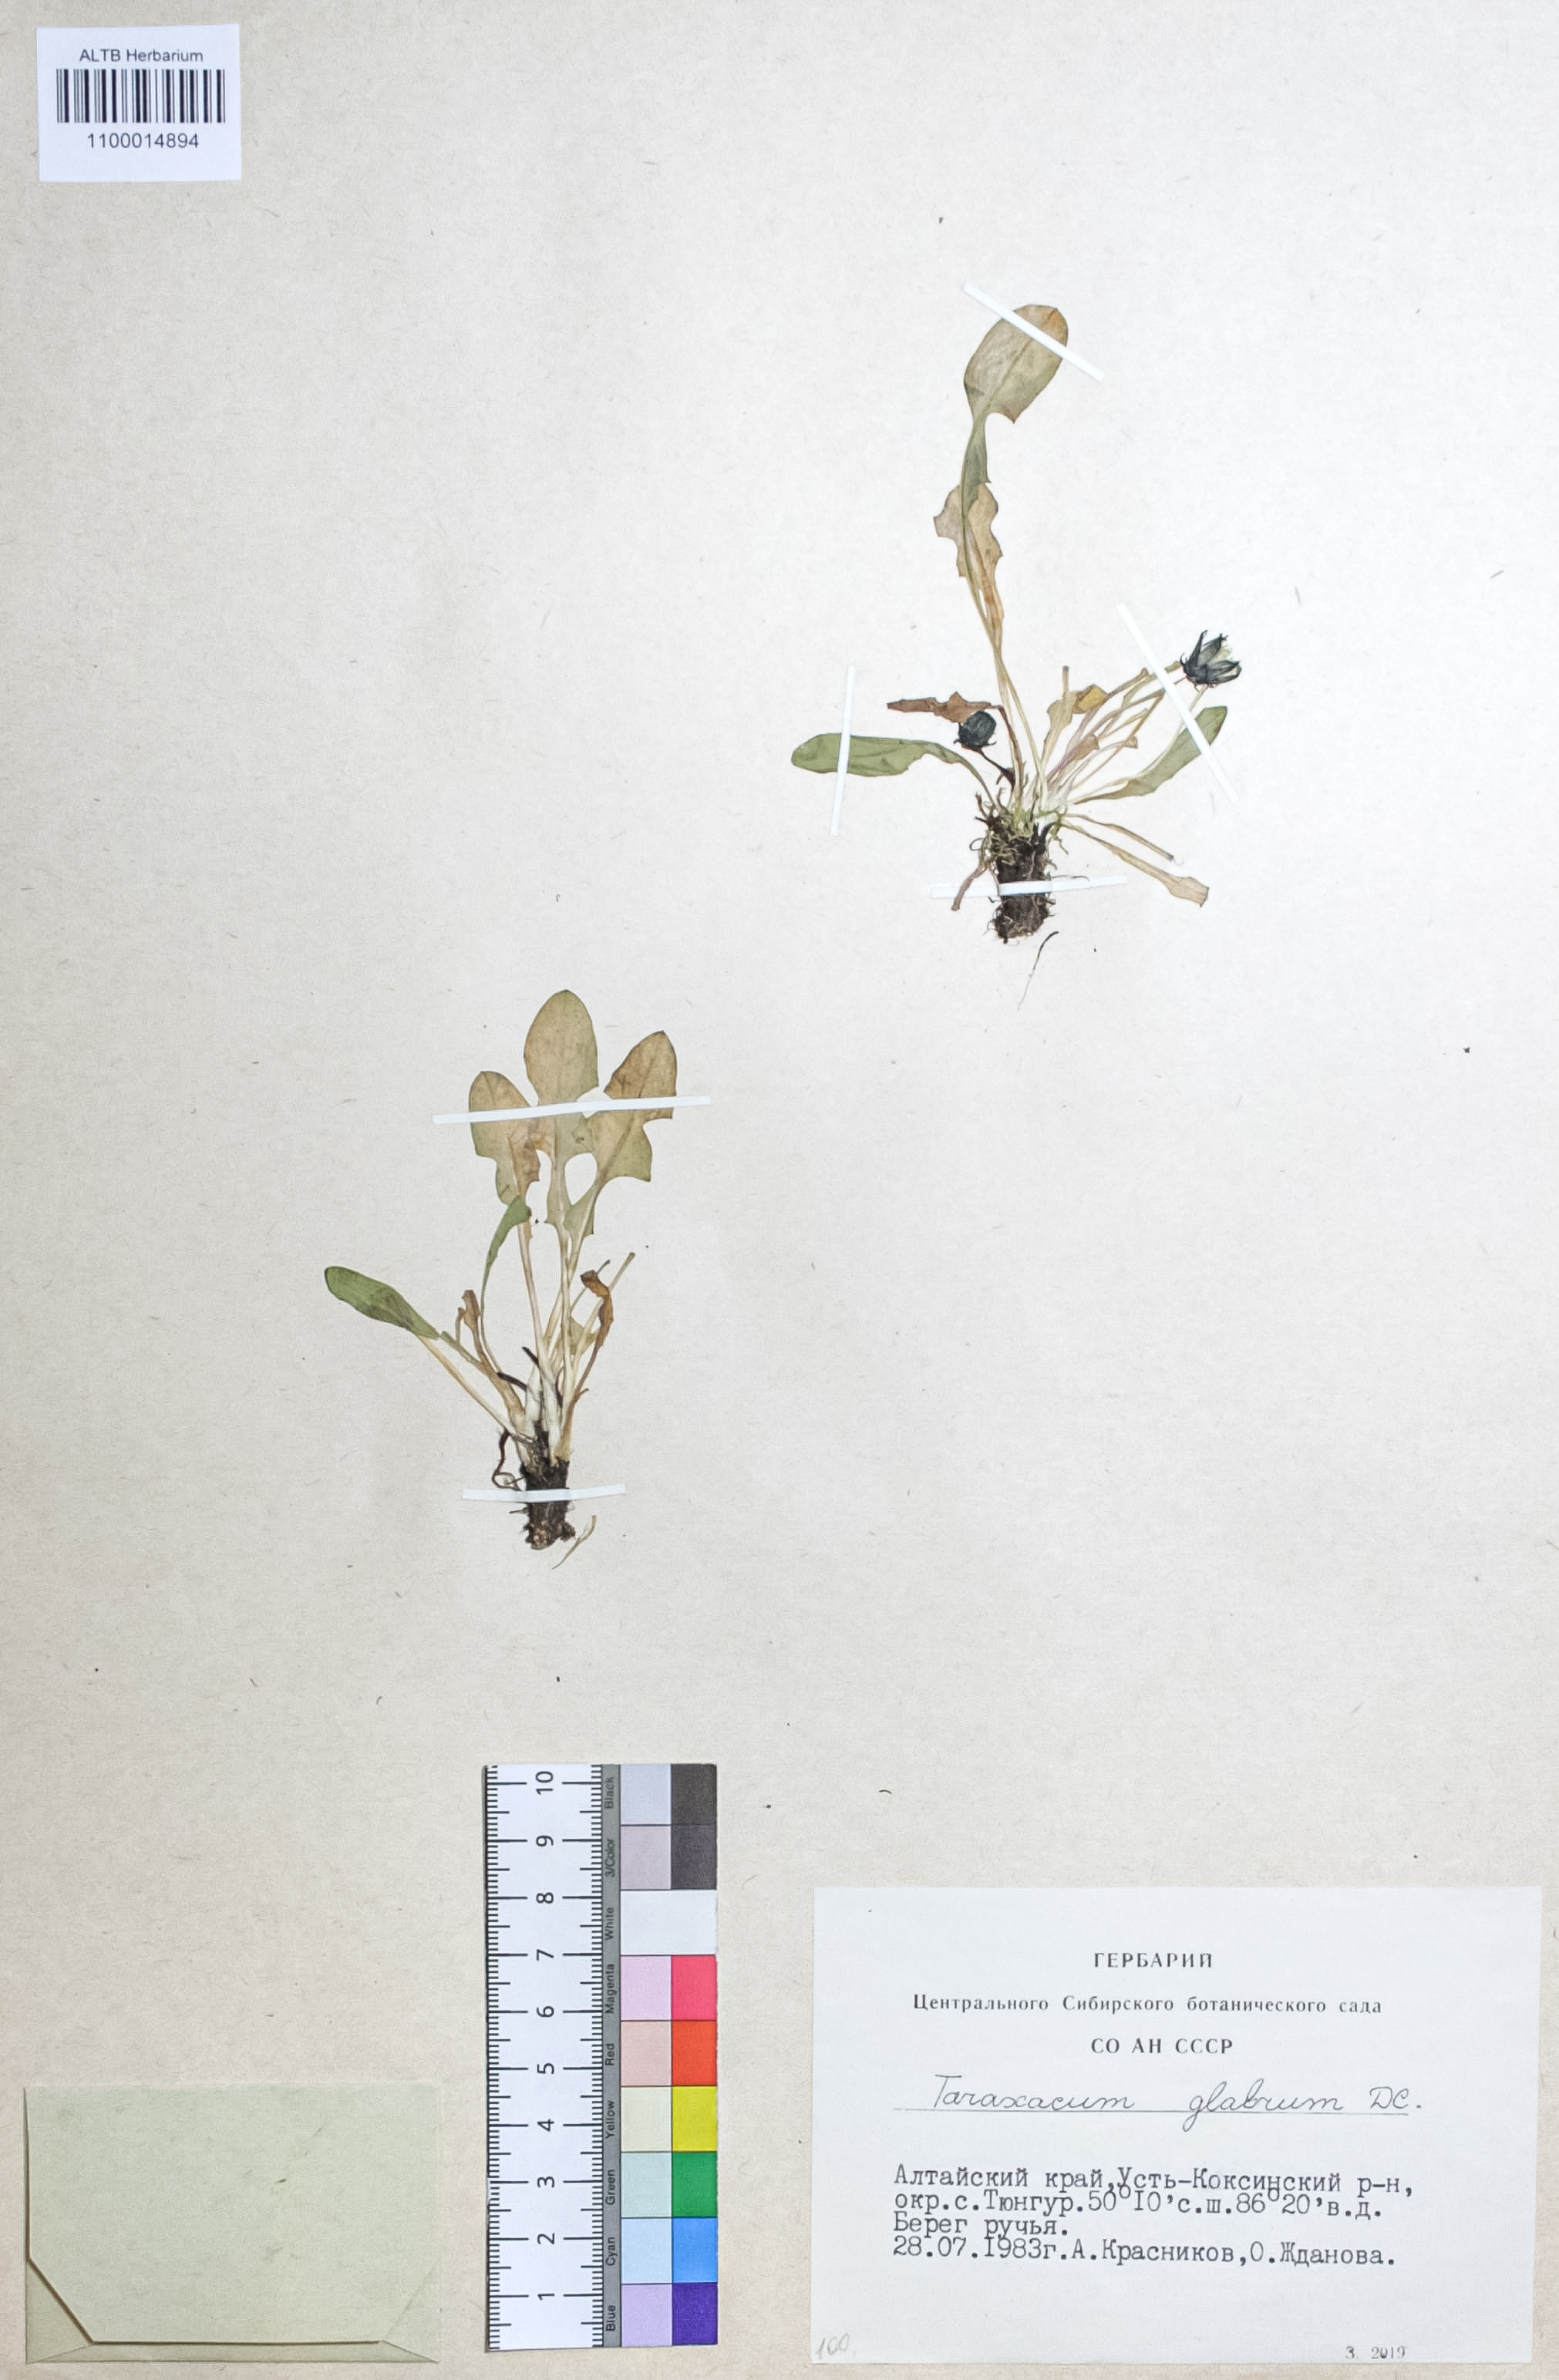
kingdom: Plantae
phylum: Tracheophyta
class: Magnoliopsida
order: Asterales
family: Asteraceae
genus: Taraxacum
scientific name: Taraxacum glabrum
